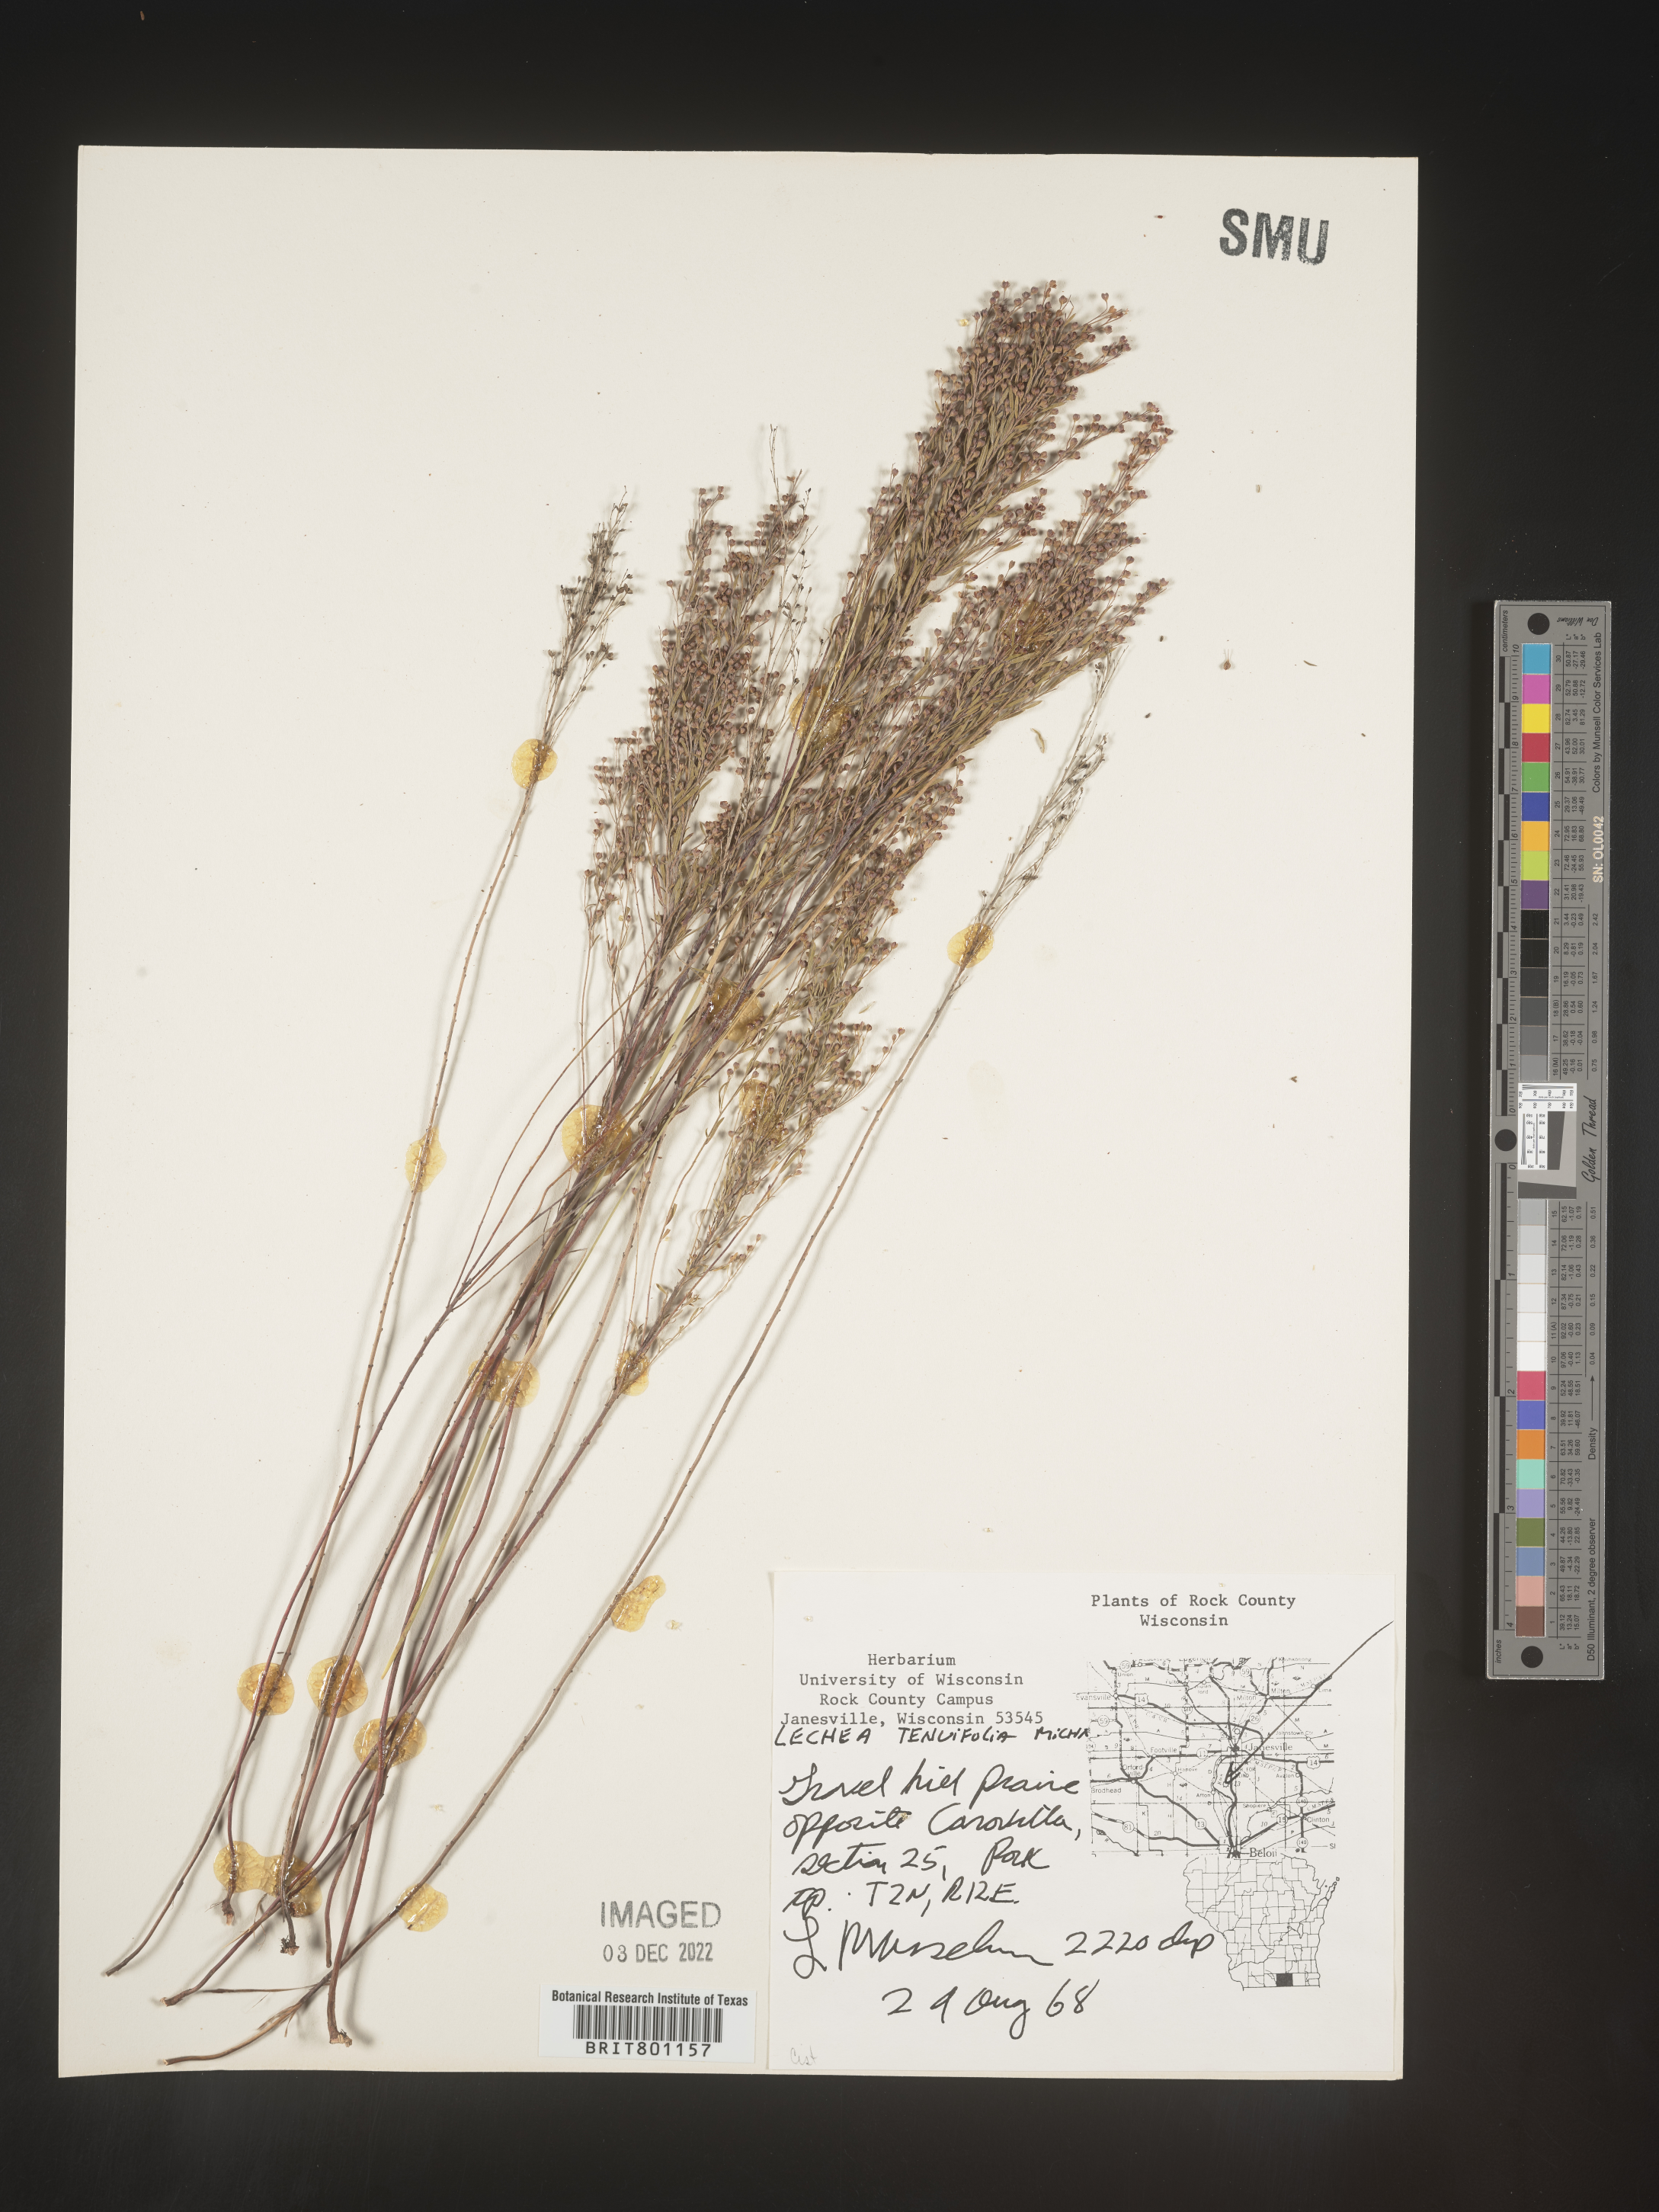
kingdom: Plantae
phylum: Tracheophyta
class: Magnoliopsida
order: Malvales
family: Cistaceae
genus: Lechea
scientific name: Lechea tenuifolia
